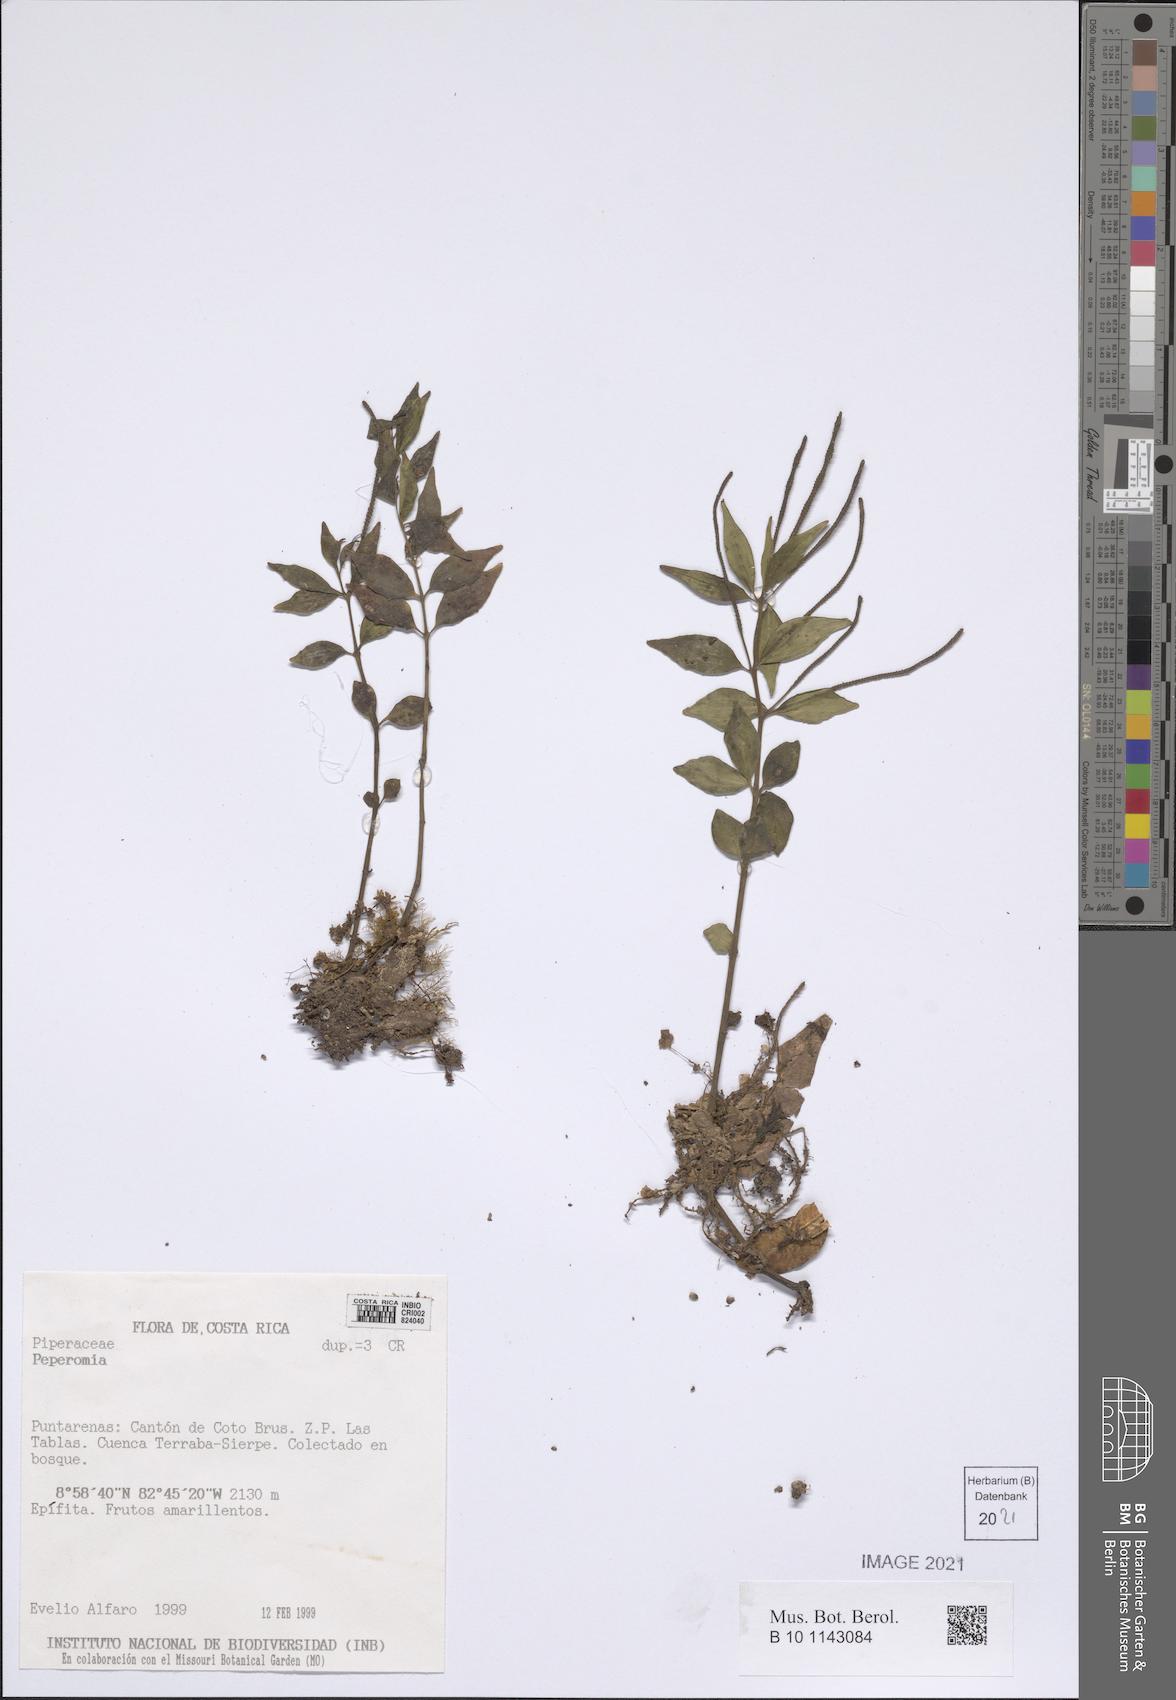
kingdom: Plantae
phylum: Tracheophyta
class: Magnoliopsida
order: Piperales
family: Piperaceae
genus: Peperomia
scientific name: Peperomia
